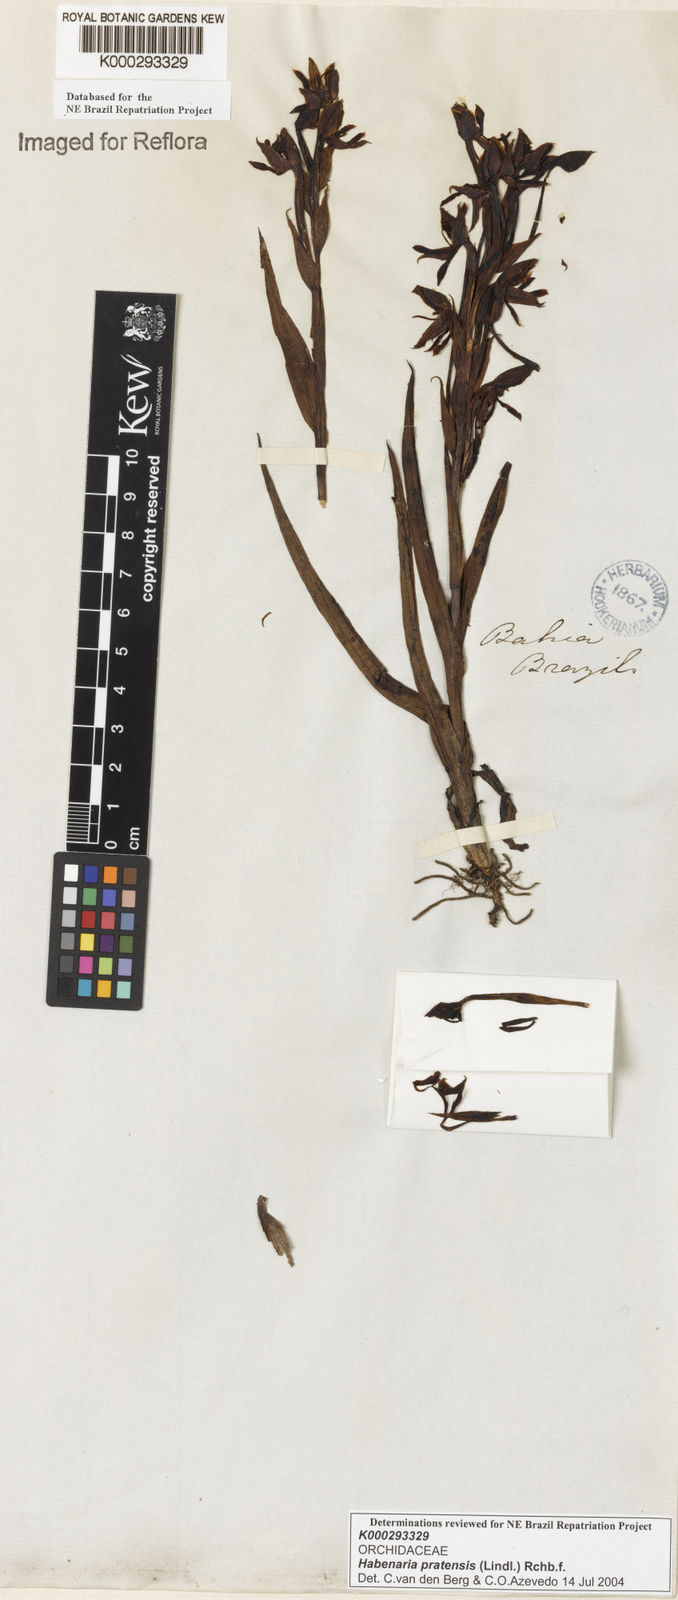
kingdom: Plantae
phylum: Tracheophyta
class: Liliopsida
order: Asparagales
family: Orchidaceae
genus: Habenaria
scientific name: Habenaria pratensis
